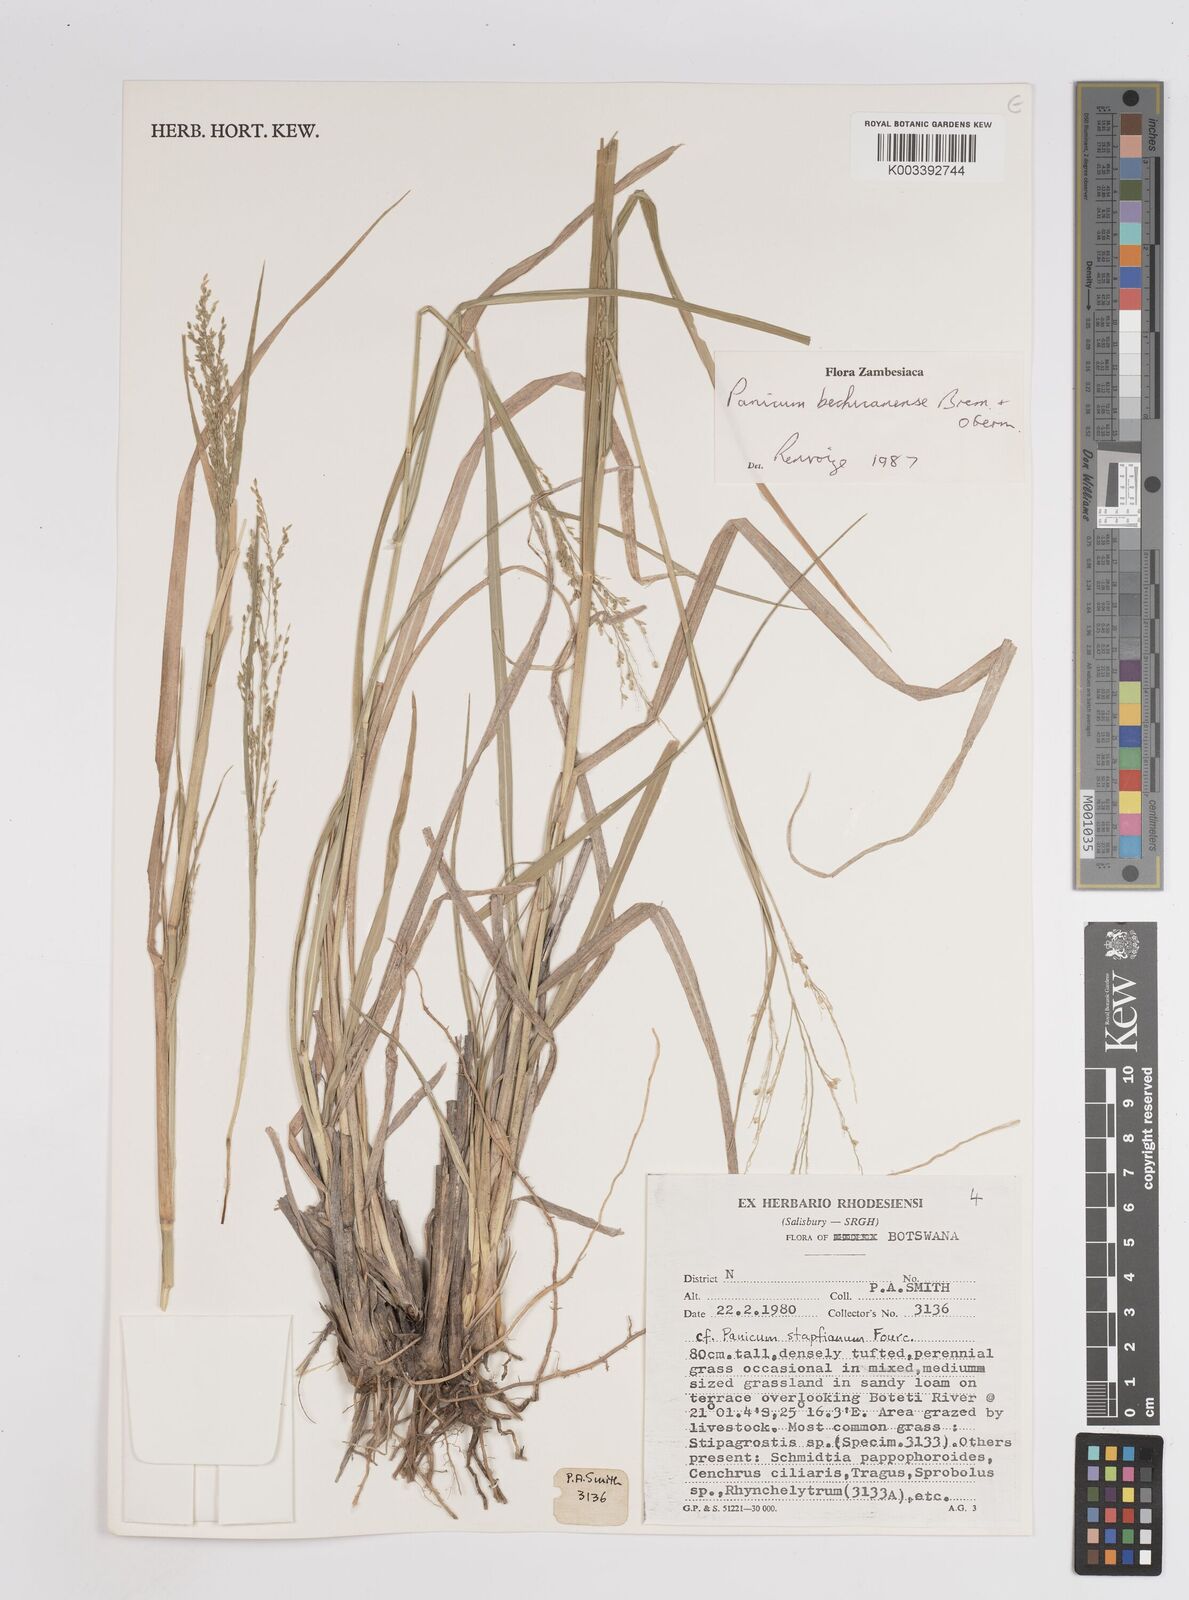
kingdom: Plantae
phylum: Tracheophyta
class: Liliopsida
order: Poales
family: Poaceae
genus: Panicum
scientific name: Panicum bechuanense
